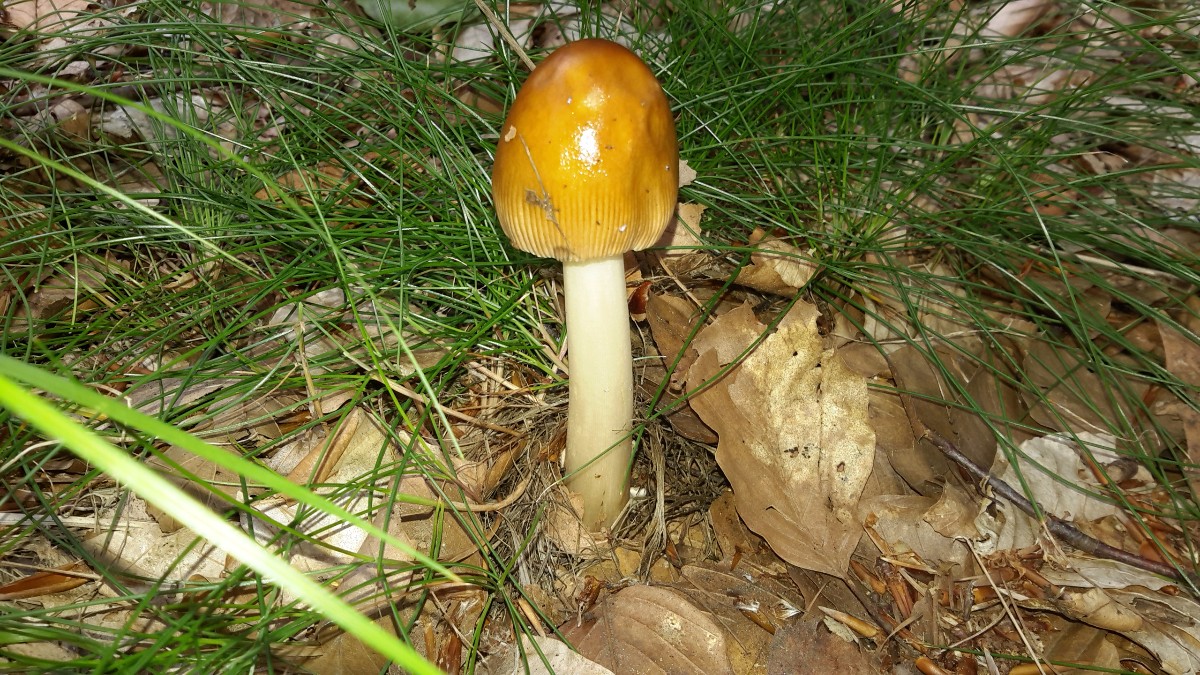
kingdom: Fungi
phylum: Basidiomycota
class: Agaricomycetes
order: Agaricales
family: Amanitaceae
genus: Amanita
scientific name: Amanita fulva
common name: brun kam-fluesvamp
